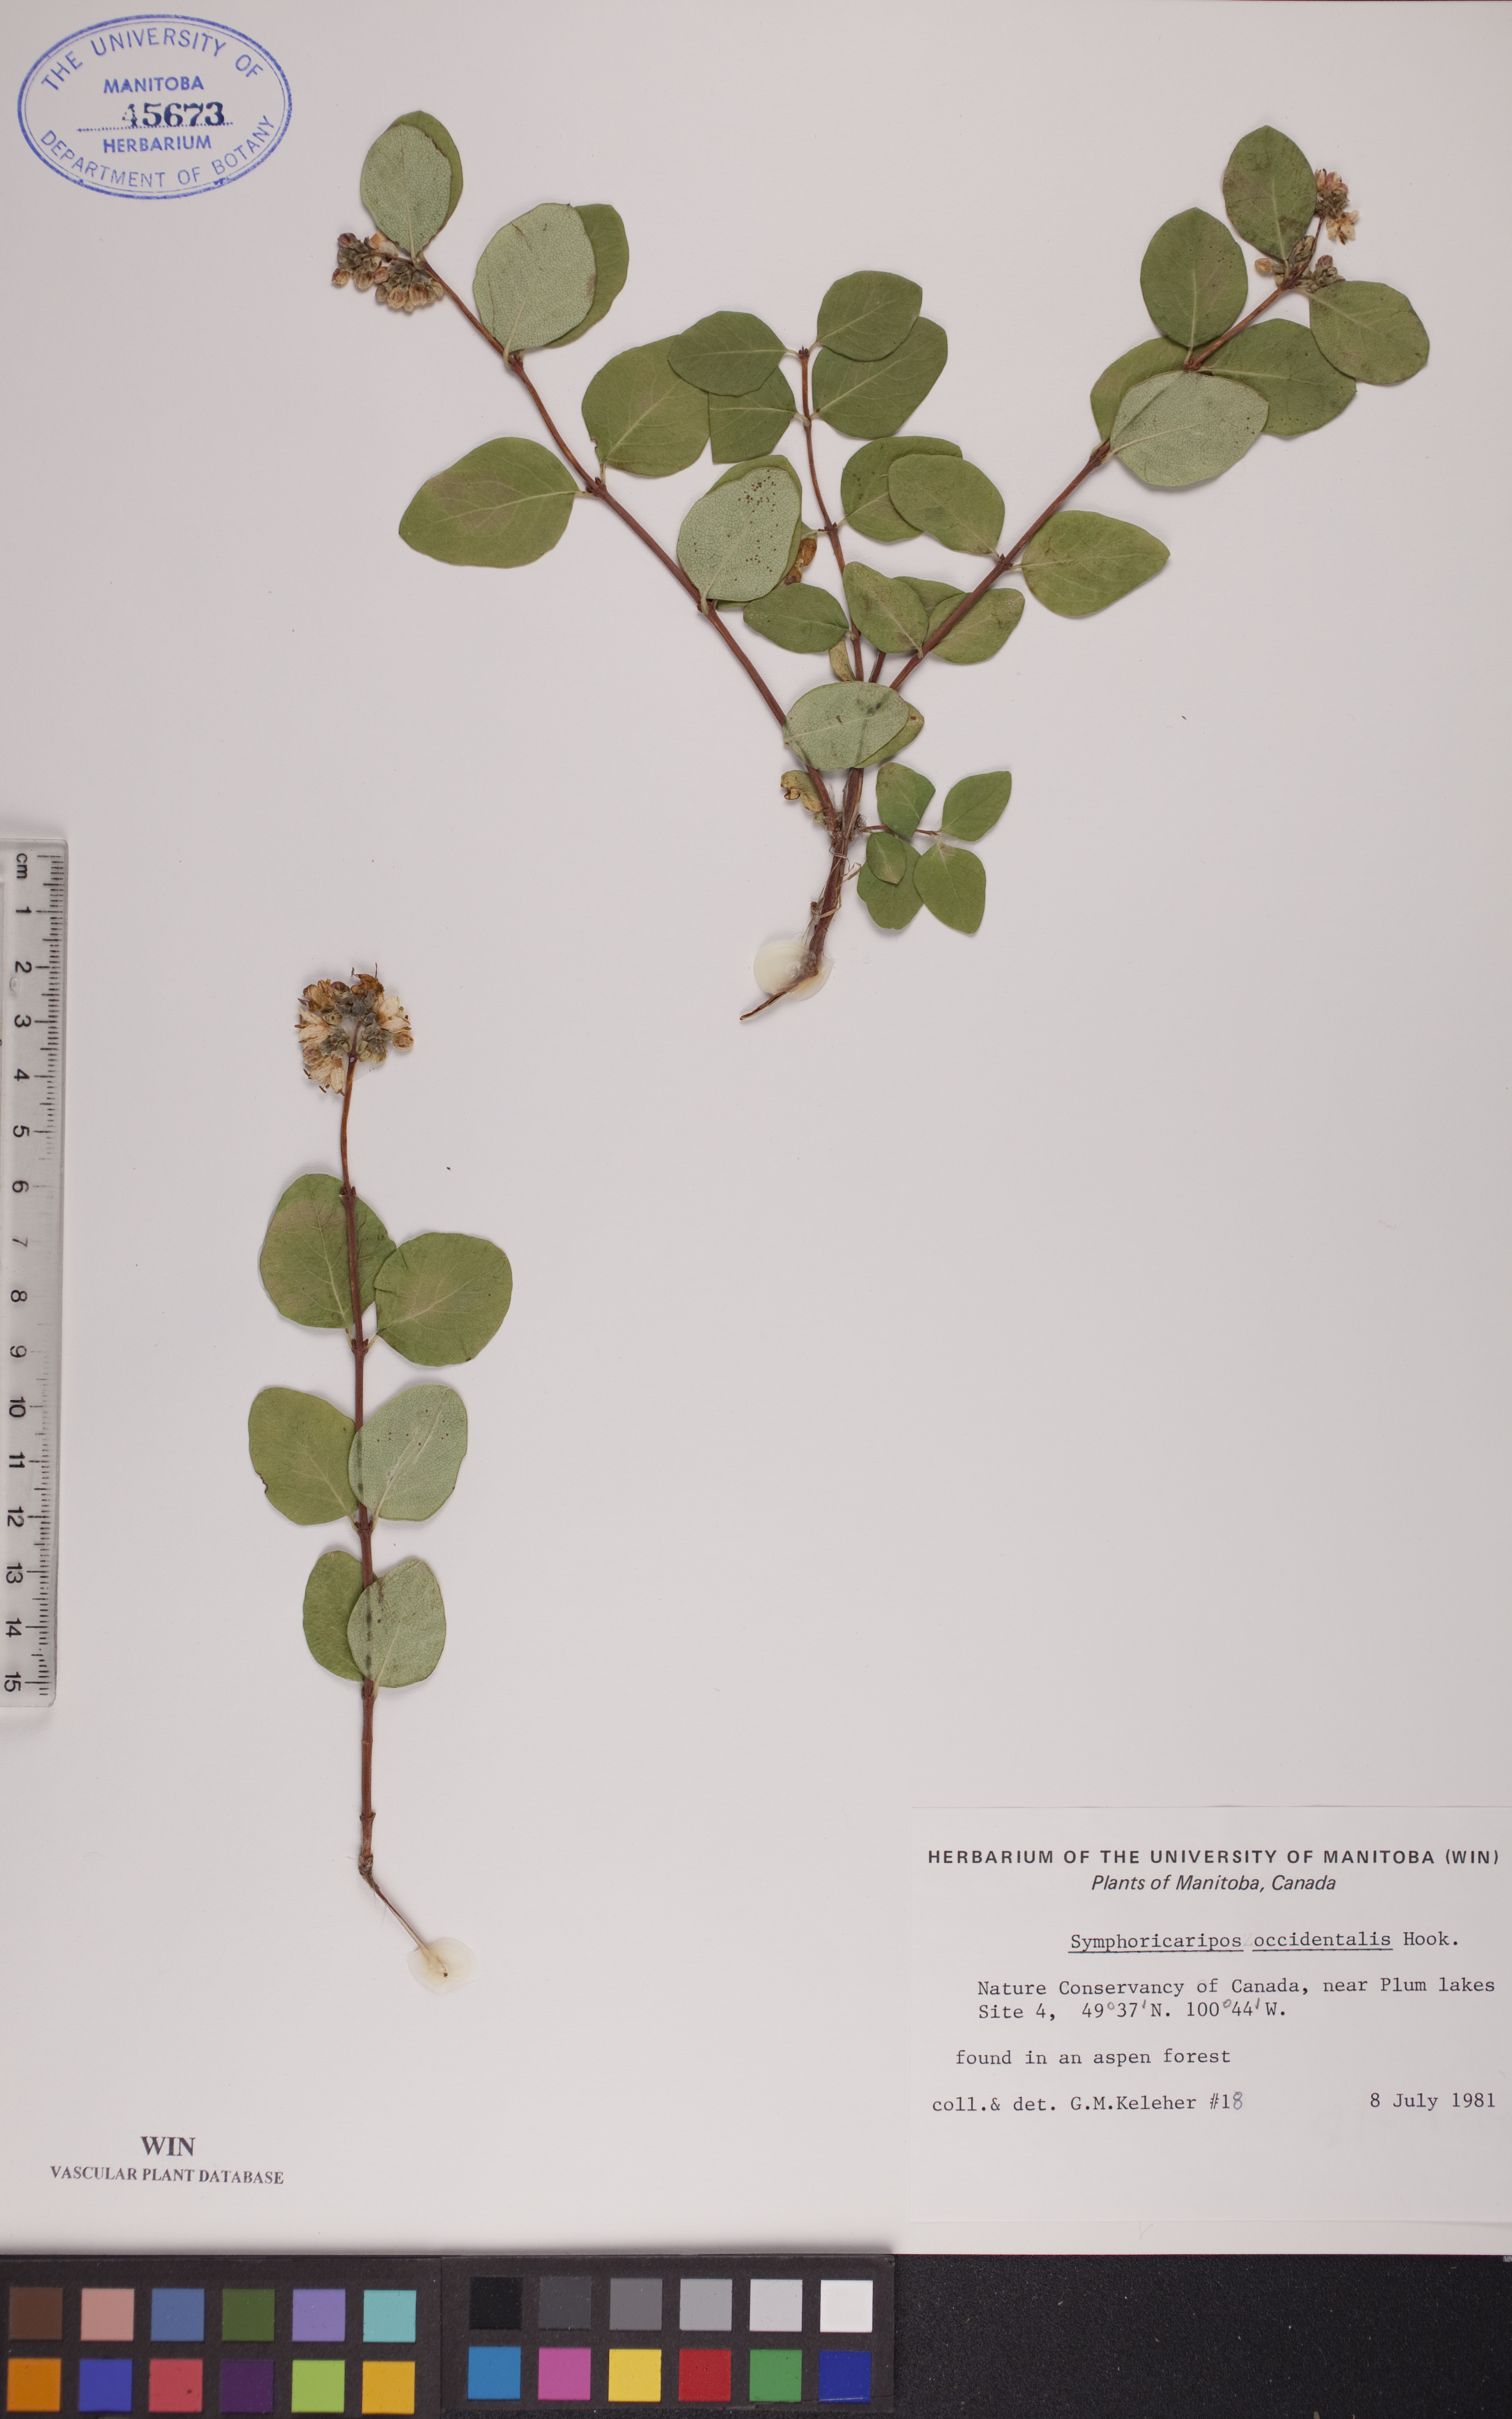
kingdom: Plantae
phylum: Tracheophyta
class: Magnoliopsida
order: Dipsacales
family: Caprifoliaceae
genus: Symphoricarpos
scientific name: Symphoricarpos occidentalis
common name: Wolfberry
